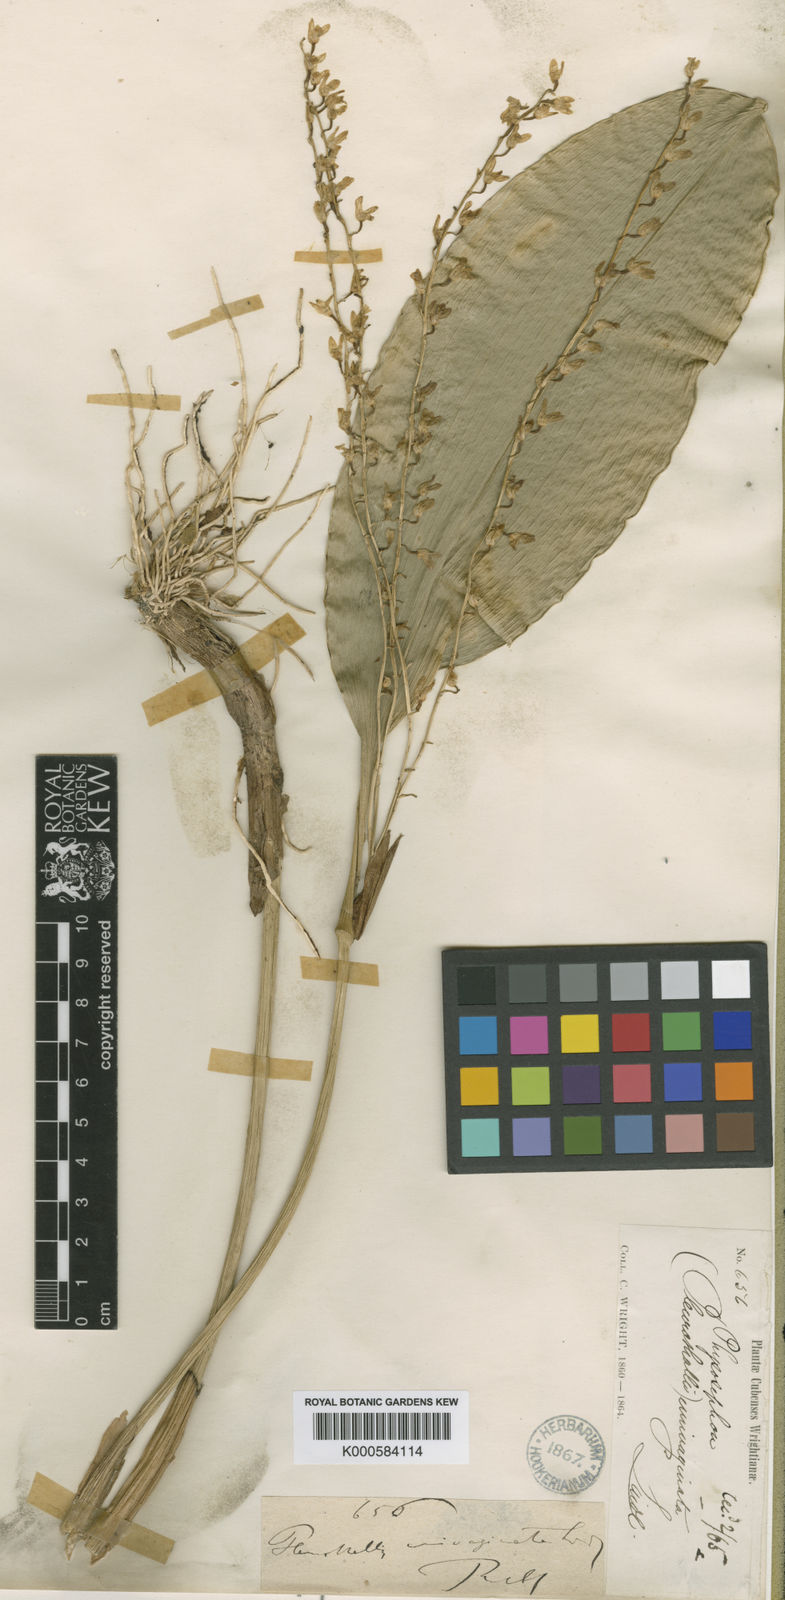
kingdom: Plantae
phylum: Tracheophyta
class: Liliopsida
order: Asparagales
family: Orchidaceae
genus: Stelis
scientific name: Stelis gelida
